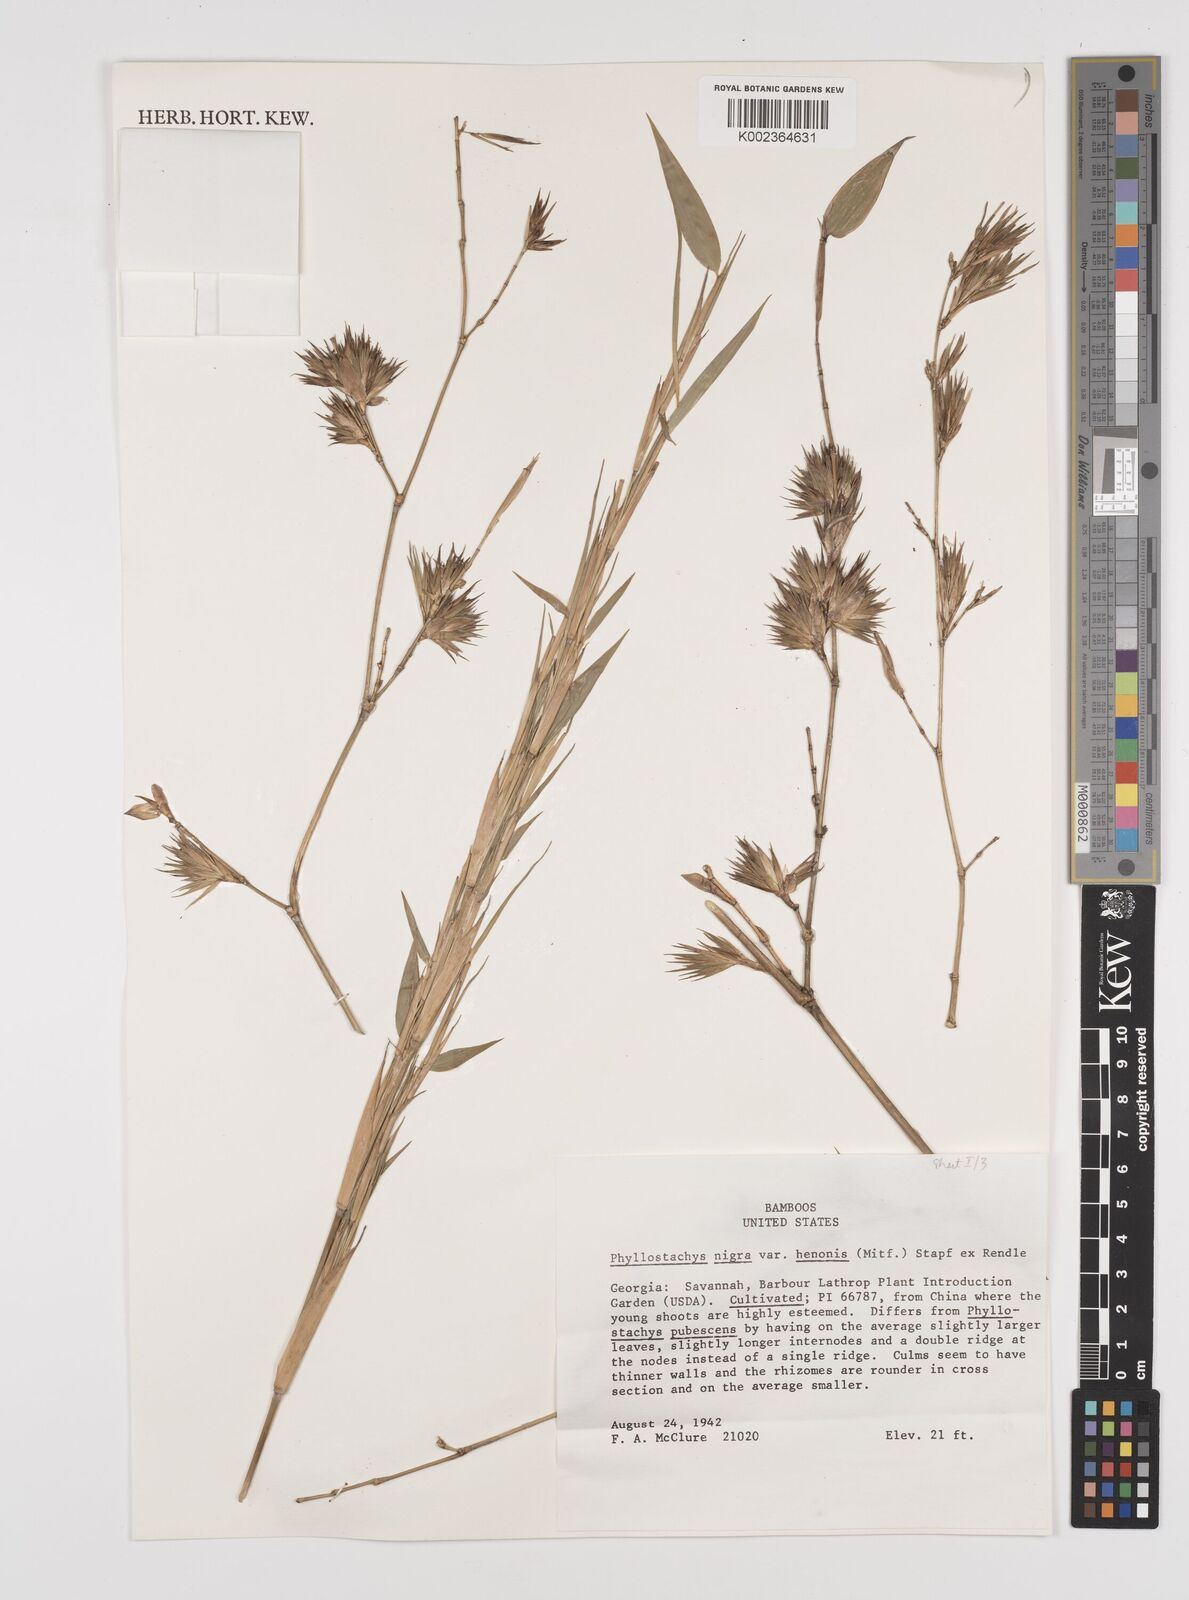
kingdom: Plantae
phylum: Tracheophyta
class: Liliopsida
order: Poales
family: Poaceae
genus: Phyllostachys
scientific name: Phyllostachys nigra
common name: Black bamboo
